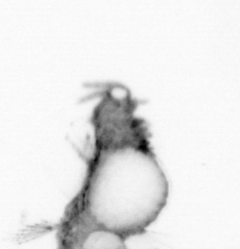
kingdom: Animalia
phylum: Annelida
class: Polychaeta
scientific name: Polychaeta
